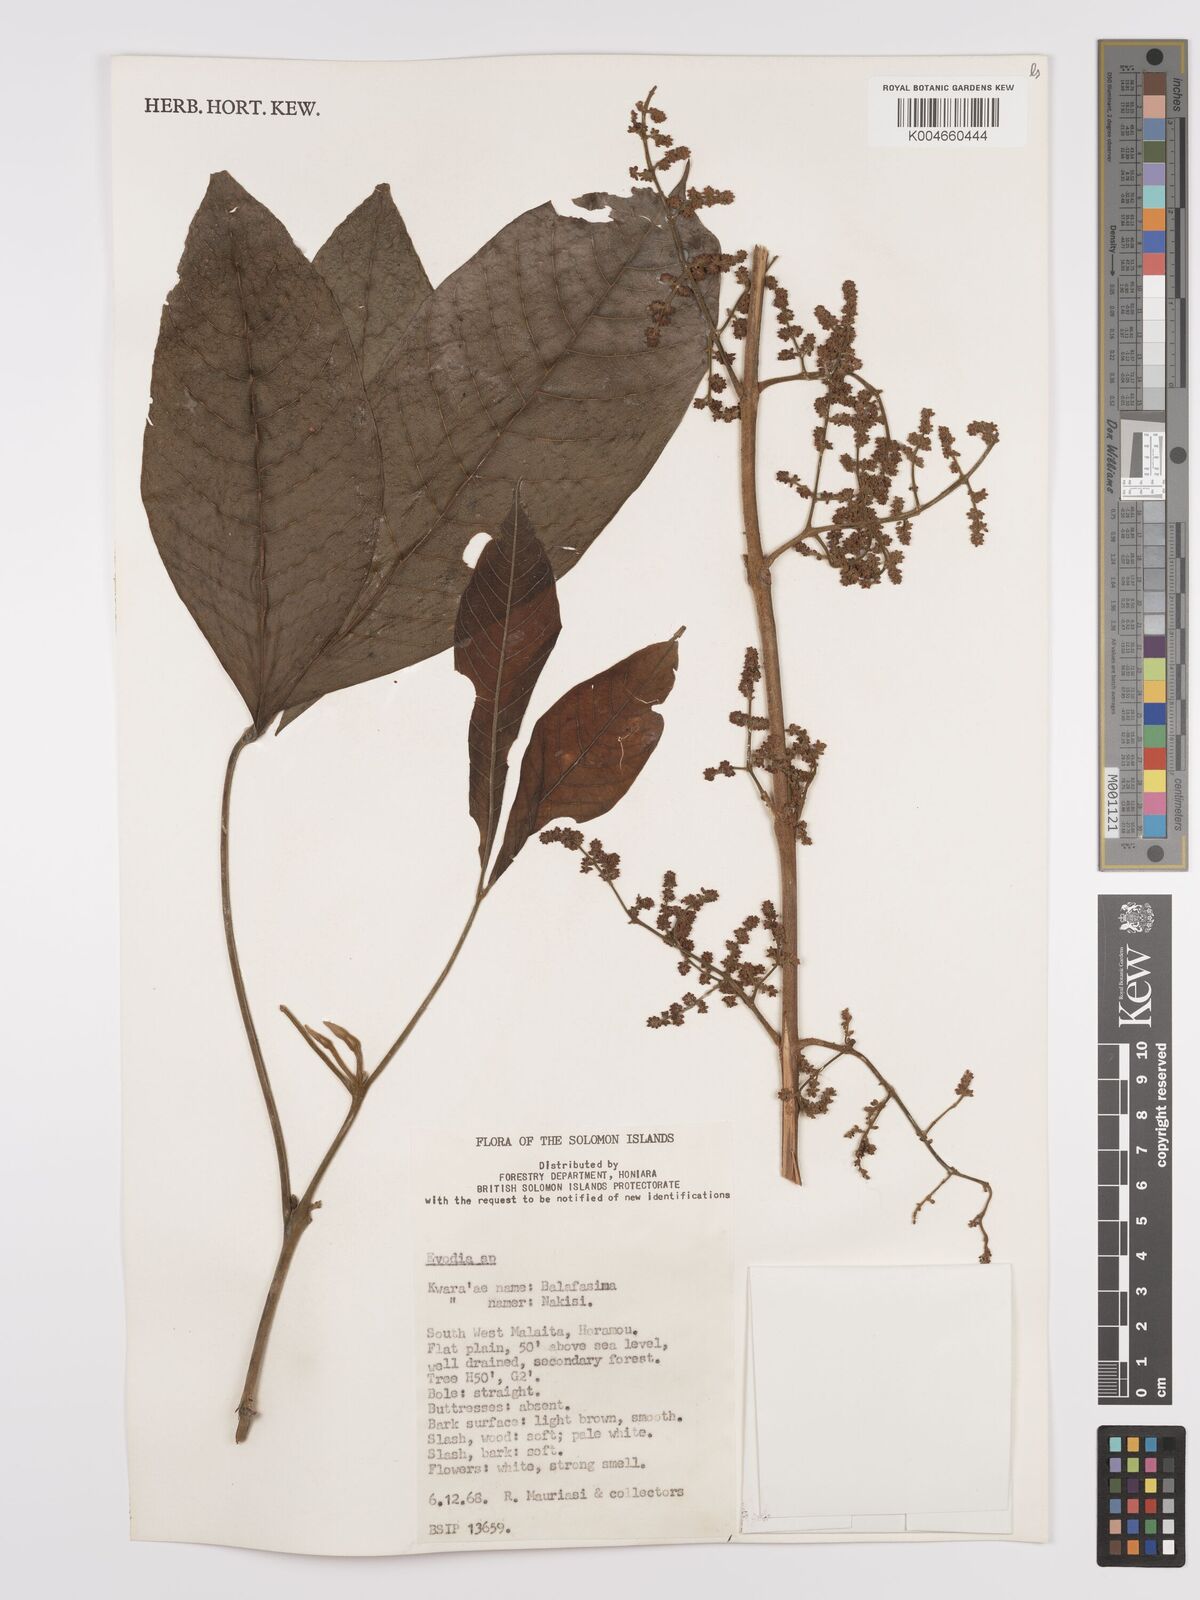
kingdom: Plantae
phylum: Tracheophyta
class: Magnoliopsida
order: Sapindales
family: Rutaceae
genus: Euodia
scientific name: Euodia
